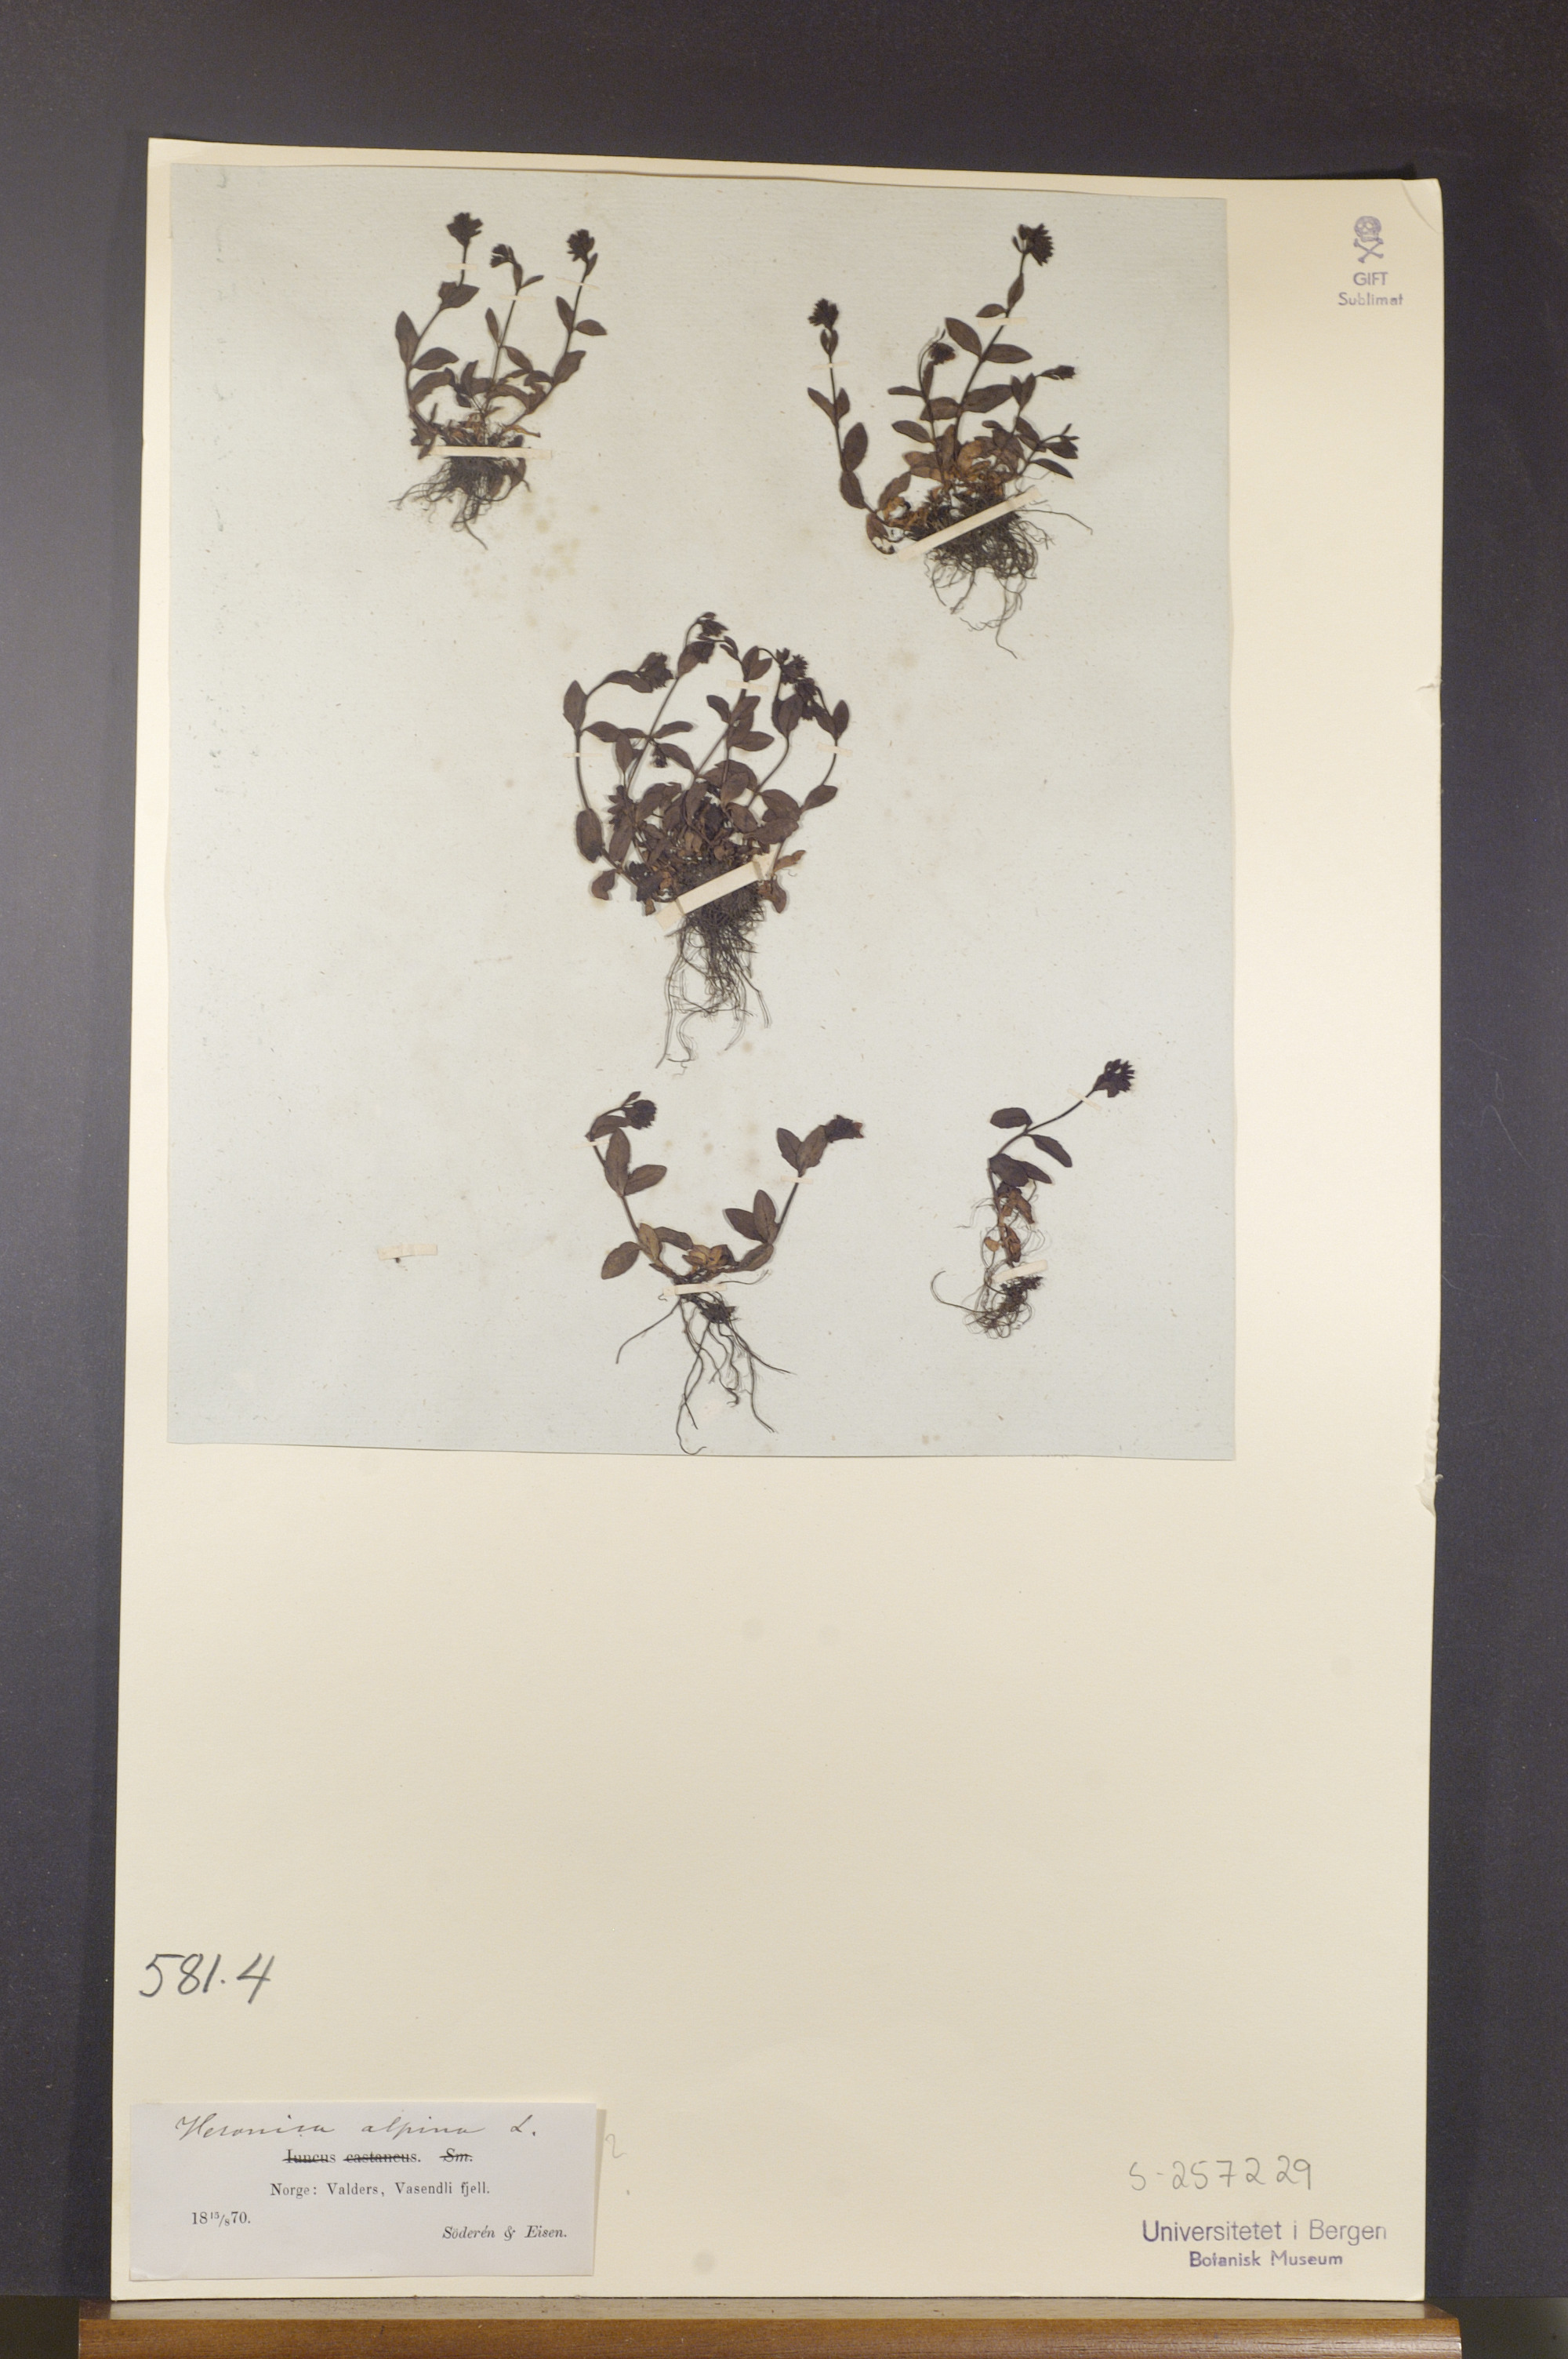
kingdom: Plantae
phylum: Tracheophyta
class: Magnoliopsida
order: Lamiales
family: Plantaginaceae
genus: Veronica
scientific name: Veronica alpina
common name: Alpine speedwell
